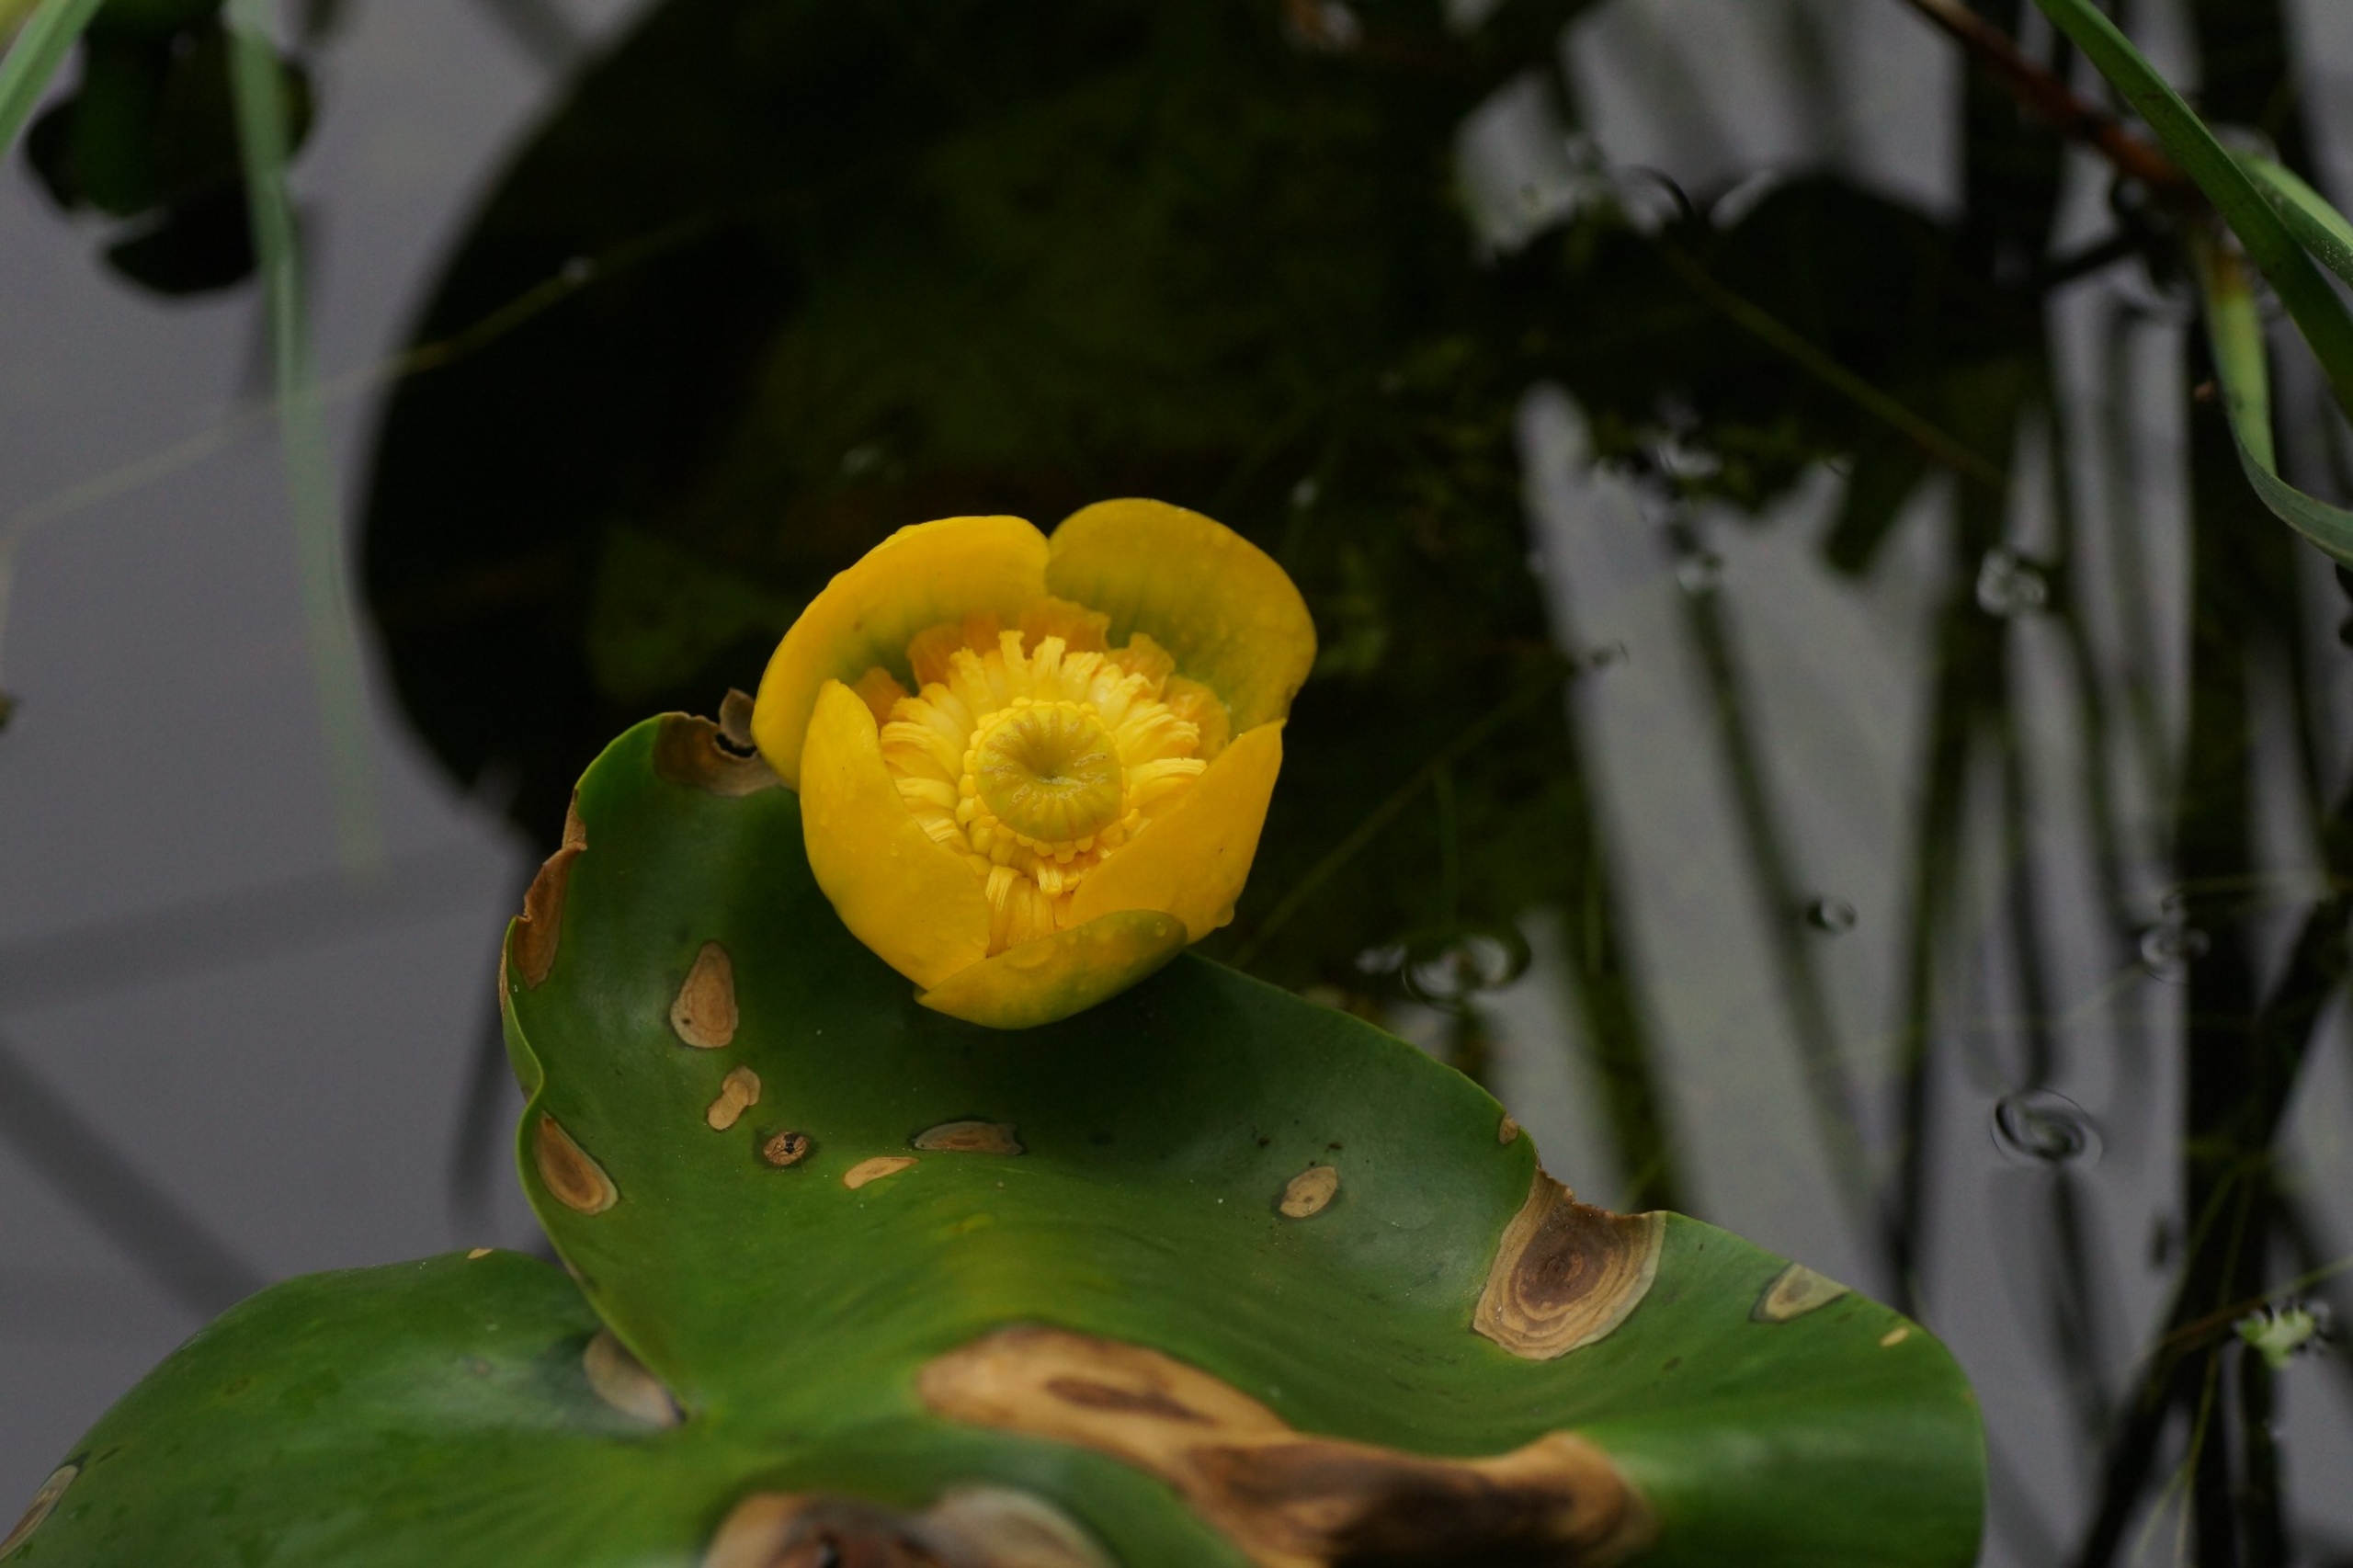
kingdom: Plantae
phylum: Tracheophyta
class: Magnoliopsida
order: Nymphaeales
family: Nymphaeaceae
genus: Nuphar
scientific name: Nuphar lutea
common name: Gul åkande
